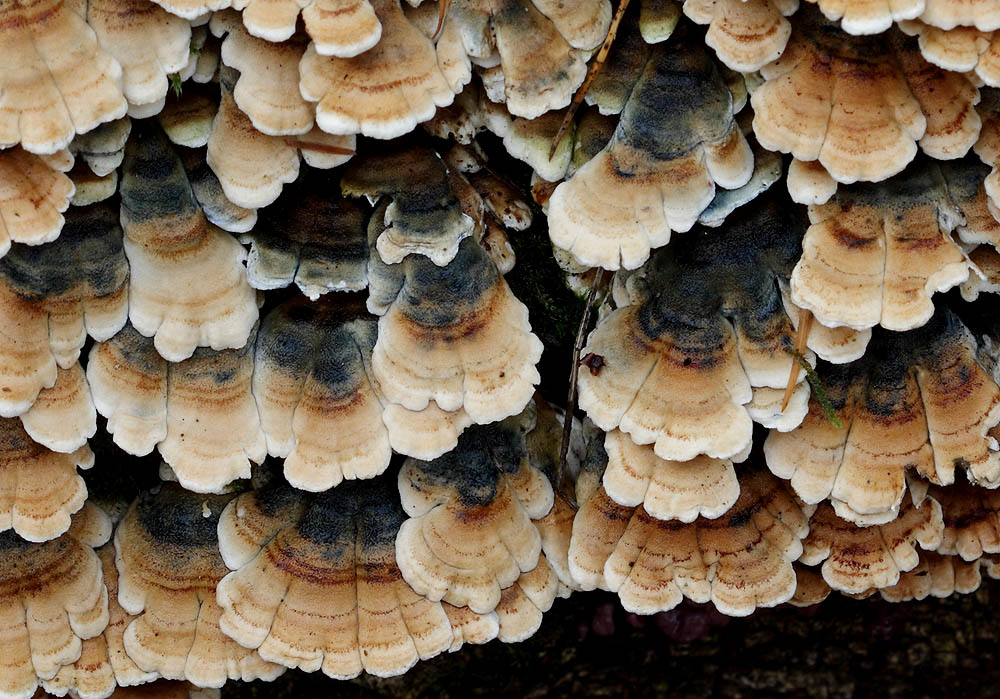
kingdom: Fungi
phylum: Basidiomycota
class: Agaricomycetes
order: Amylocorticiales
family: Amylocorticiaceae
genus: Plicaturopsis
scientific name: Plicaturopsis crispa
